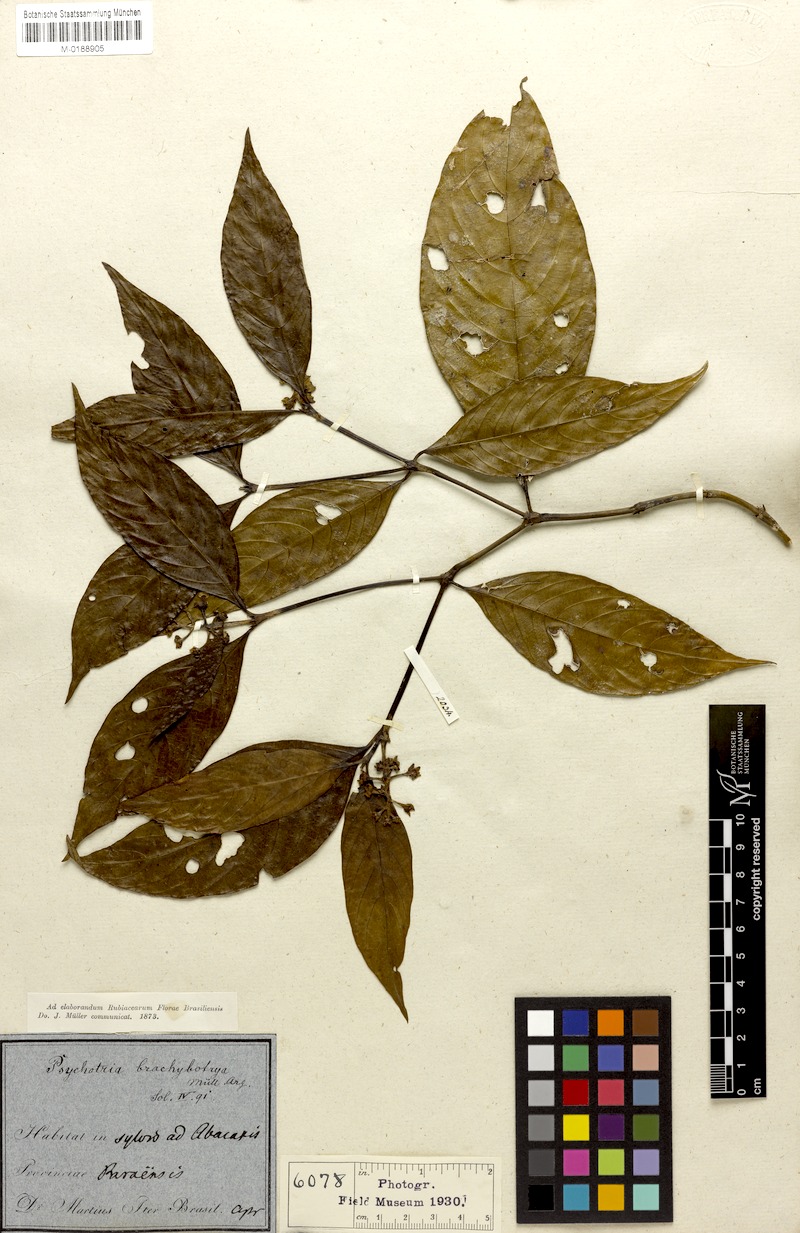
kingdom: Plantae
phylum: Tracheophyta
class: Magnoliopsida
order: Gentianales
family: Rubiaceae
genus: Palicourea
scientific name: Palicourea gracilenta
